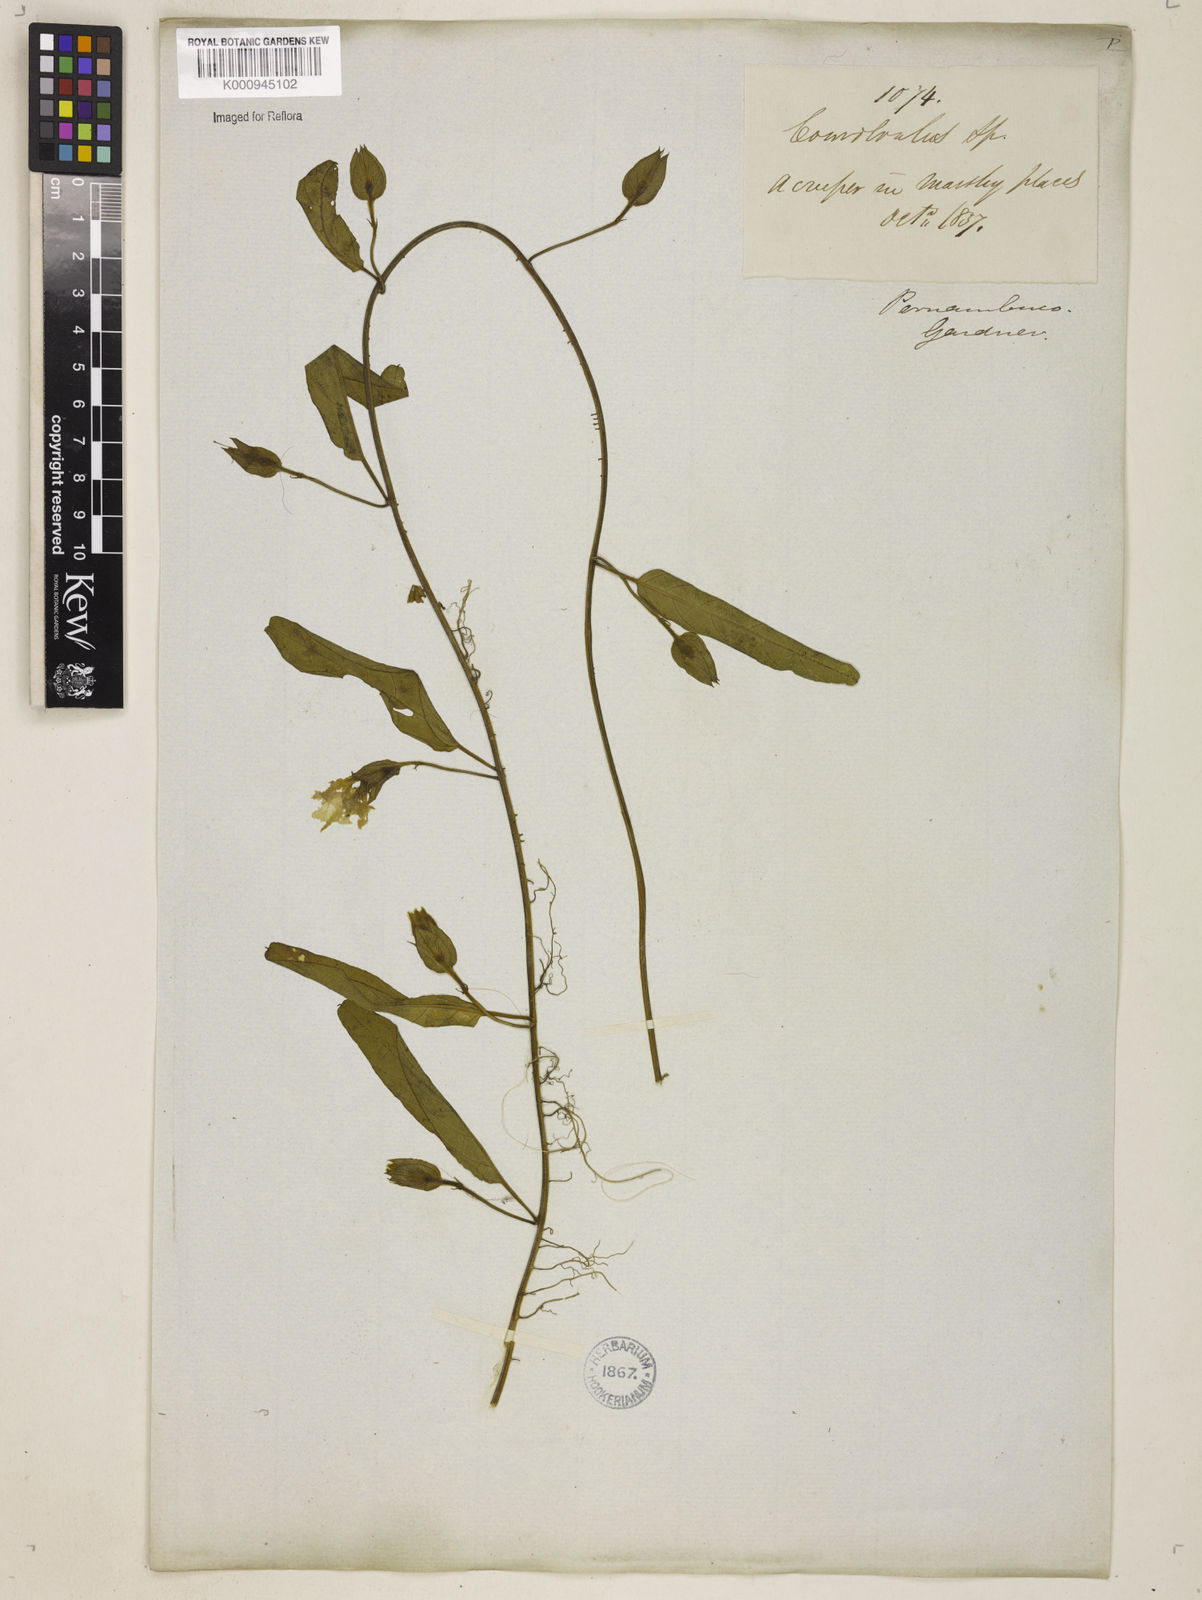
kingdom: Plantae
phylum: Tracheophyta
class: Magnoliopsida
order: Solanales
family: Convolvulaceae
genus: Aniseia
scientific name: Aniseia martinicensis
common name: Kulayadambu
